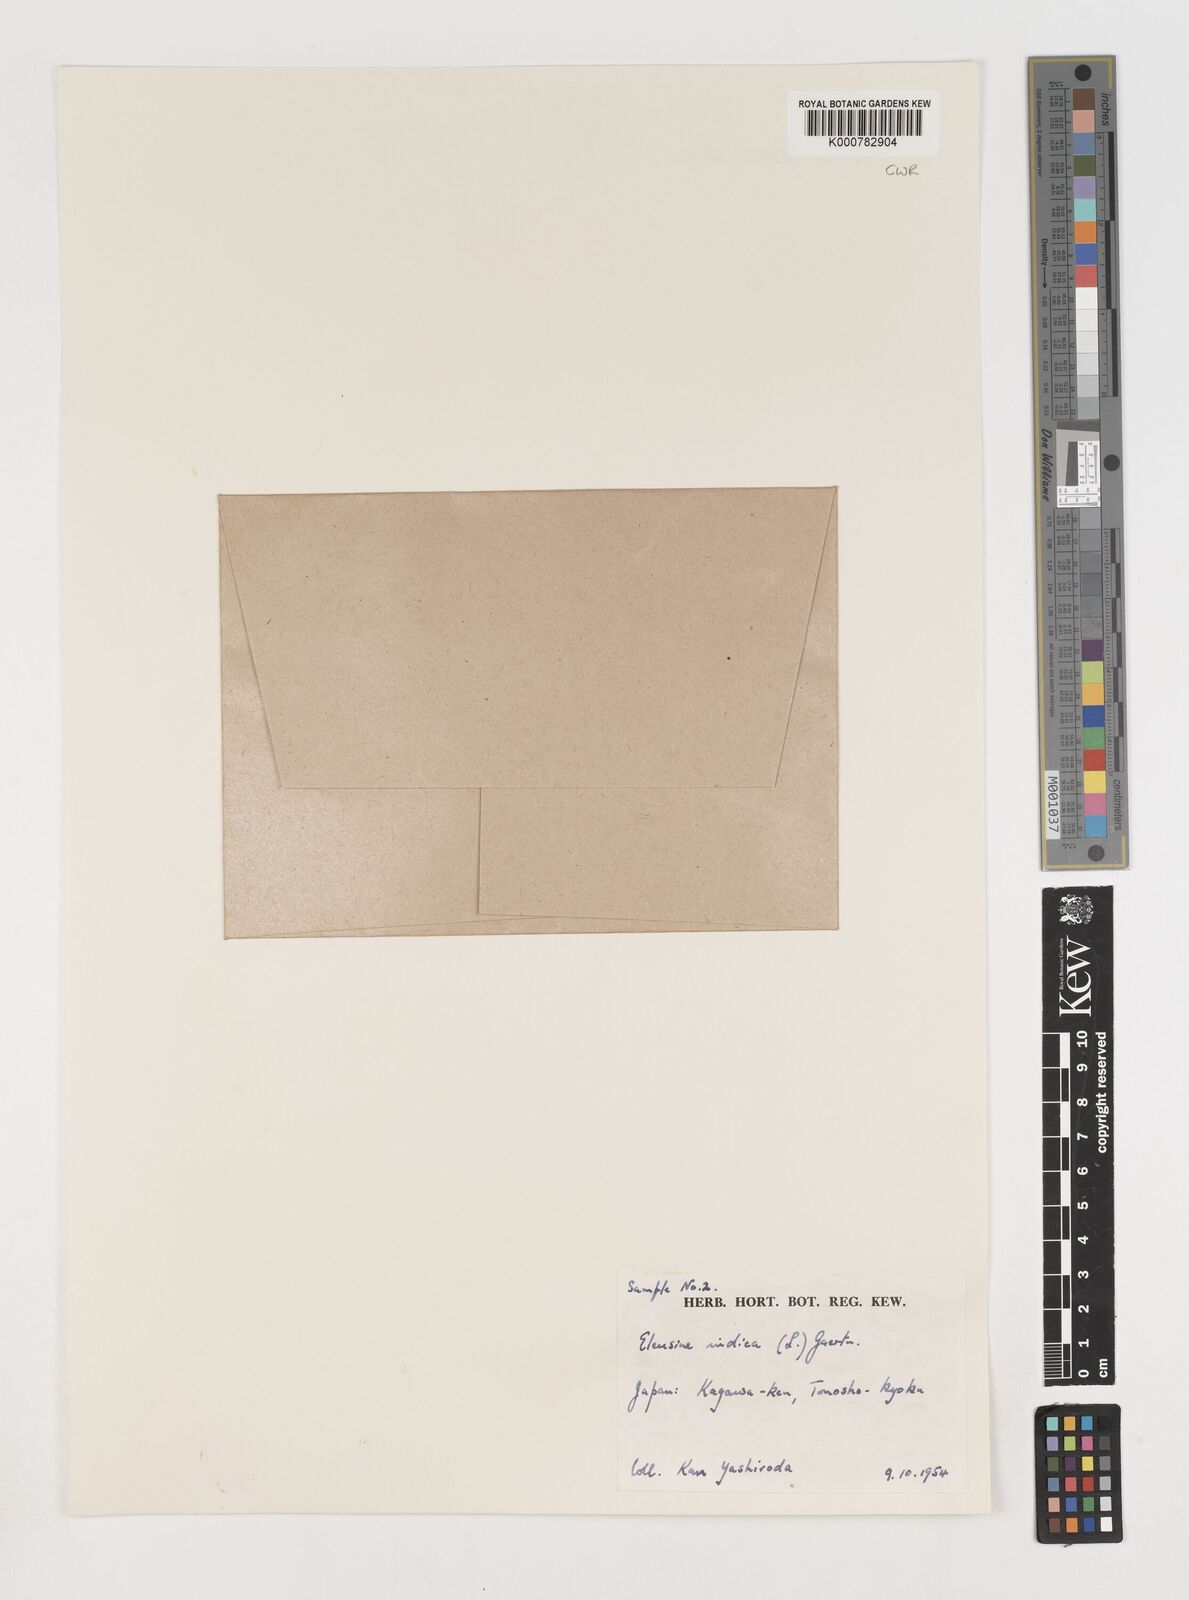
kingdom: Plantae
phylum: Tracheophyta
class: Liliopsida
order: Poales
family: Poaceae
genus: Eleusine
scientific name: Eleusine indica
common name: Yard-grass
